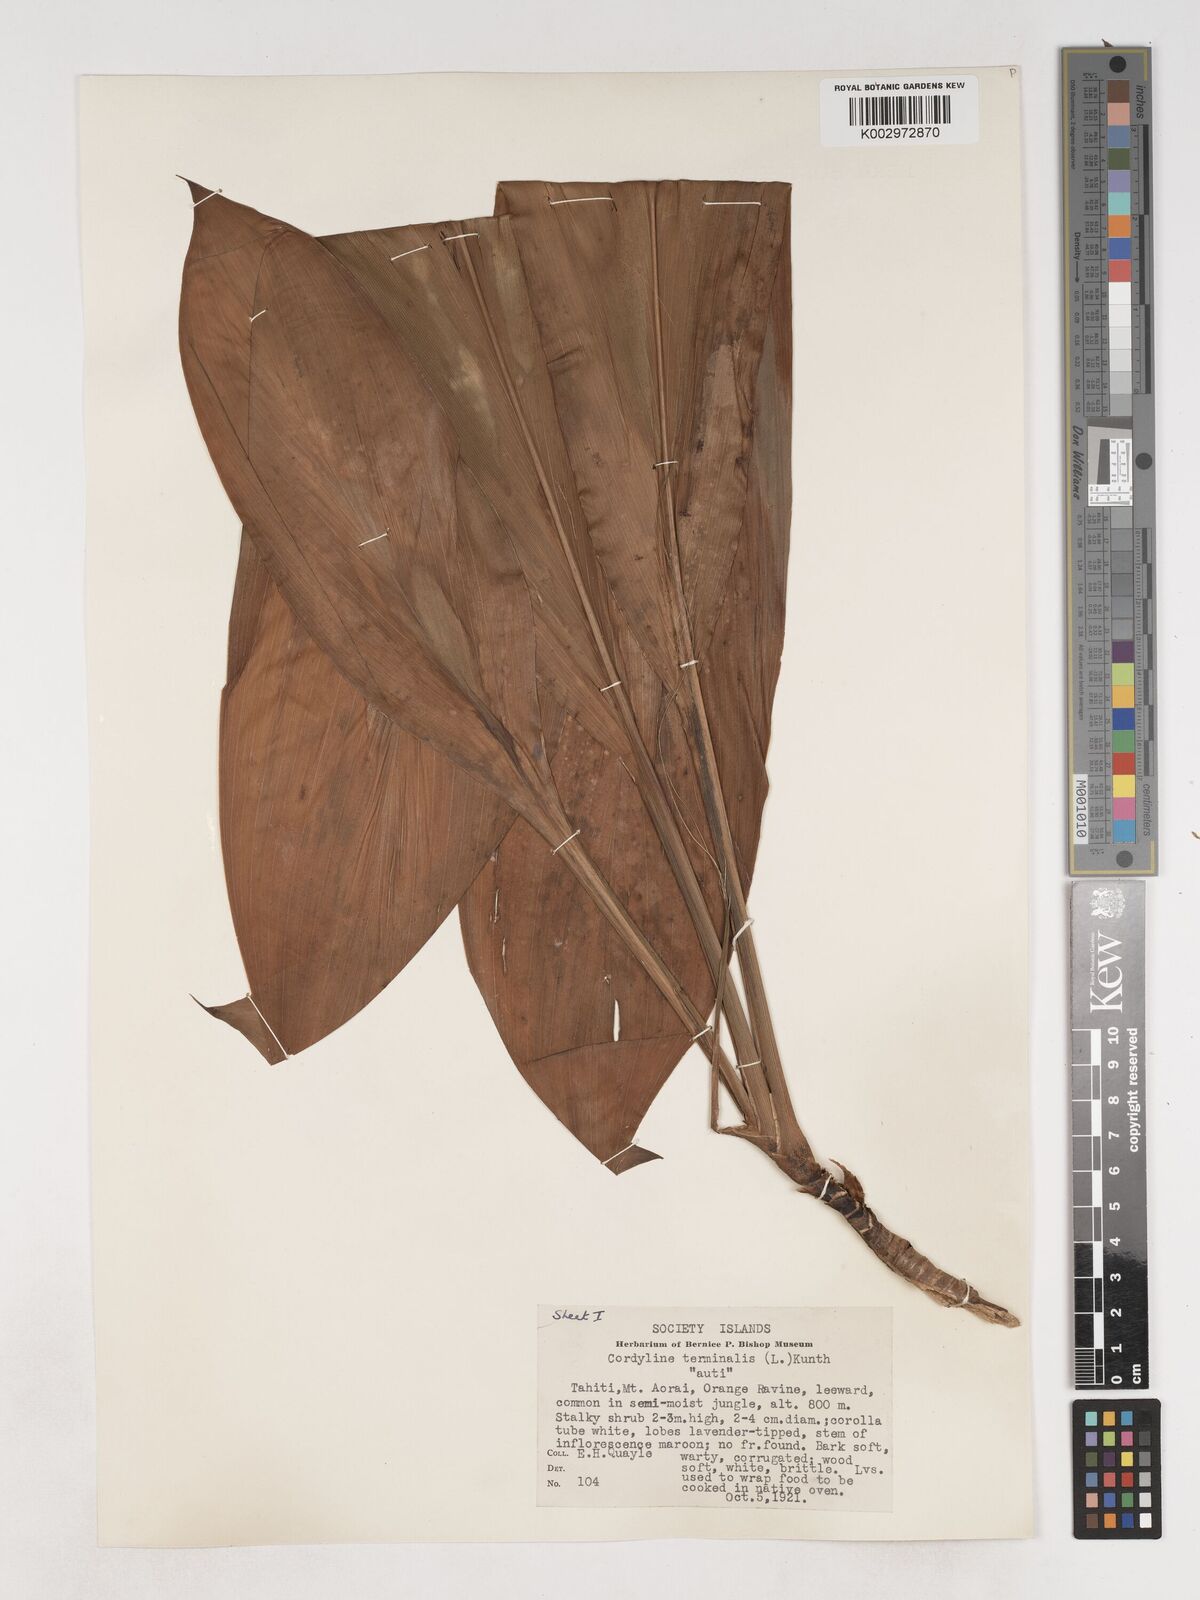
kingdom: Plantae
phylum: Tracheophyta
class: Liliopsida
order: Asparagales
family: Asparagaceae
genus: Cordyline
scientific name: Cordyline fruticosa
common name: Good-luck-plant
